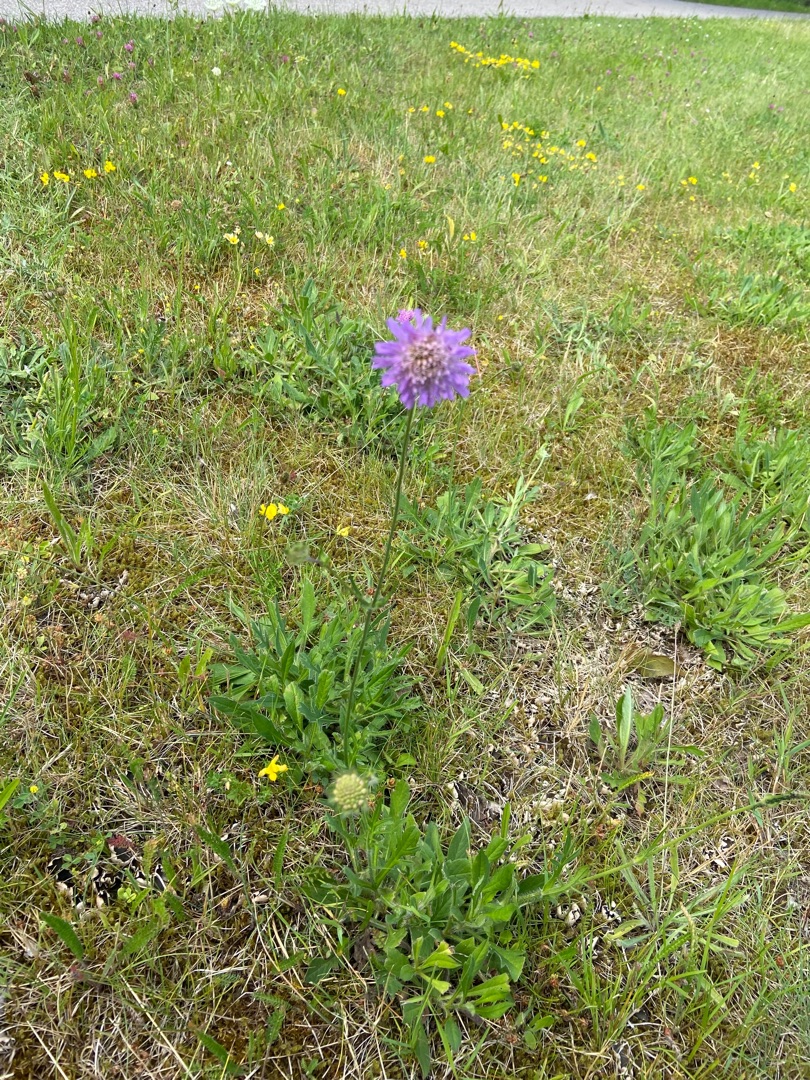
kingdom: Plantae
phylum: Tracheophyta
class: Magnoliopsida
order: Dipsacales
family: Caprifoliaceae
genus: Knautia
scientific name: Knautia arvensis
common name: Blåhat
